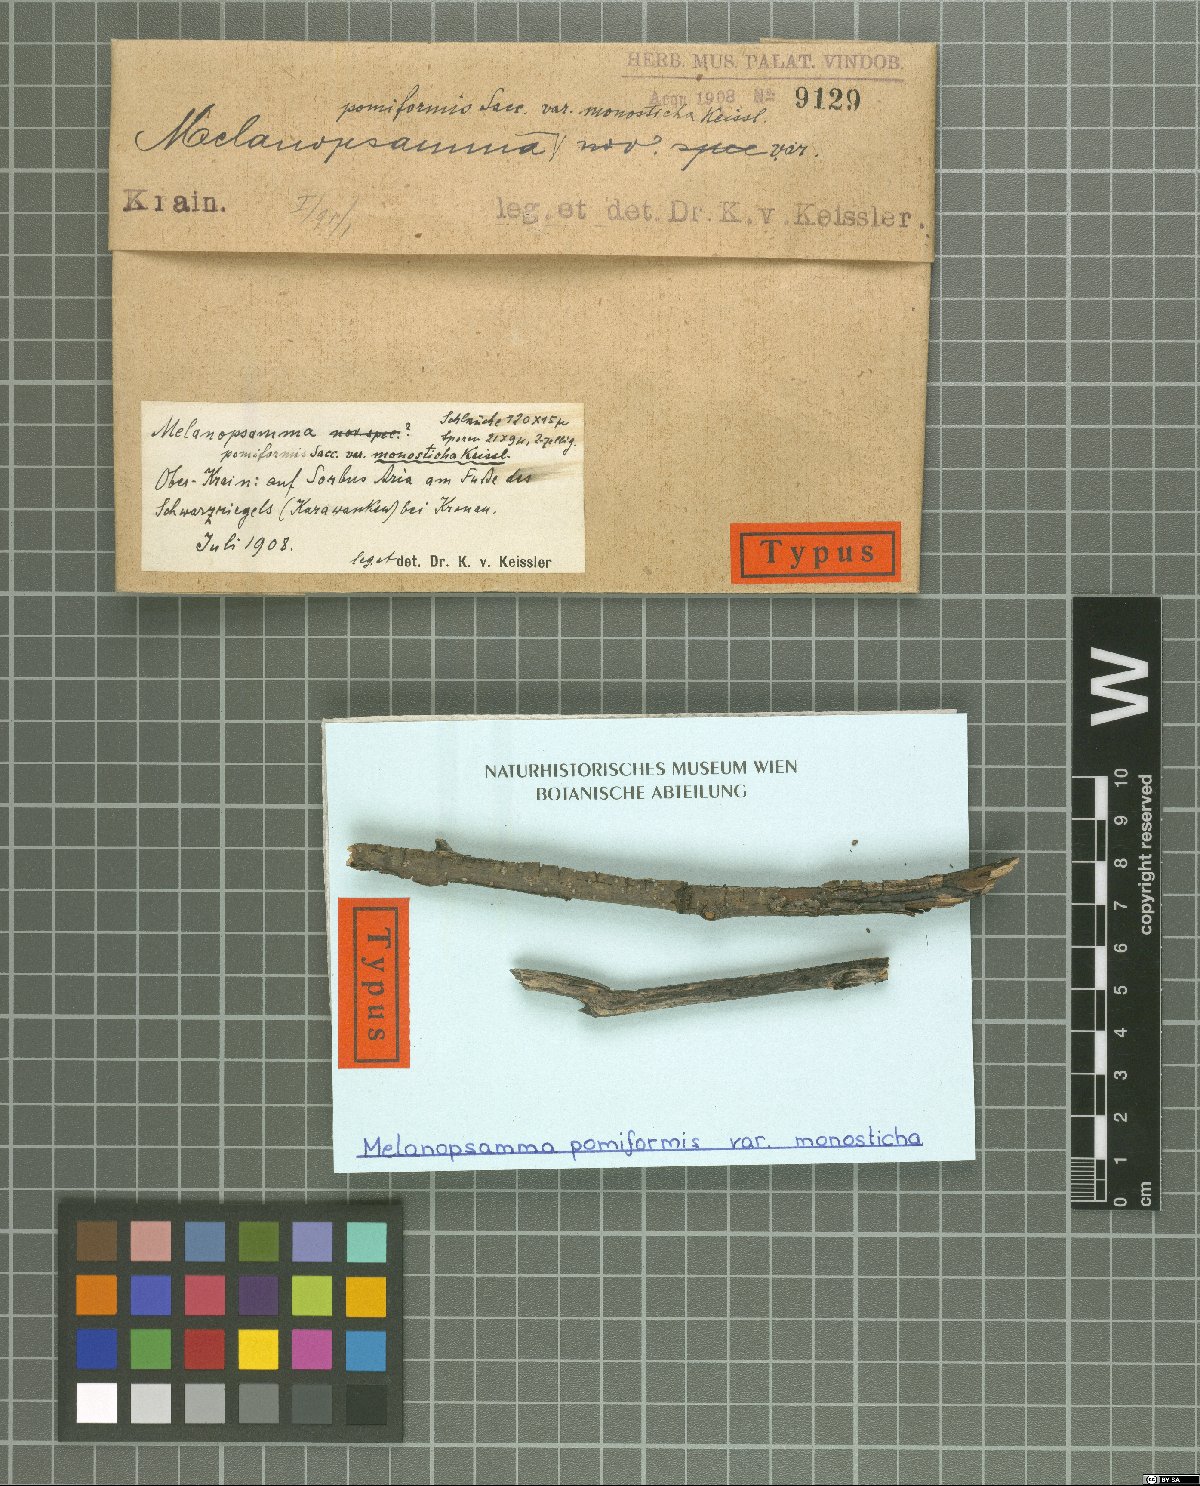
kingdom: Fungi
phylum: Ascomycota
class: Sordariomycetes
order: Hypocreales
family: Niessliaceae
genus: Melanopsamma
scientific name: Melanopsamma pomiformis
